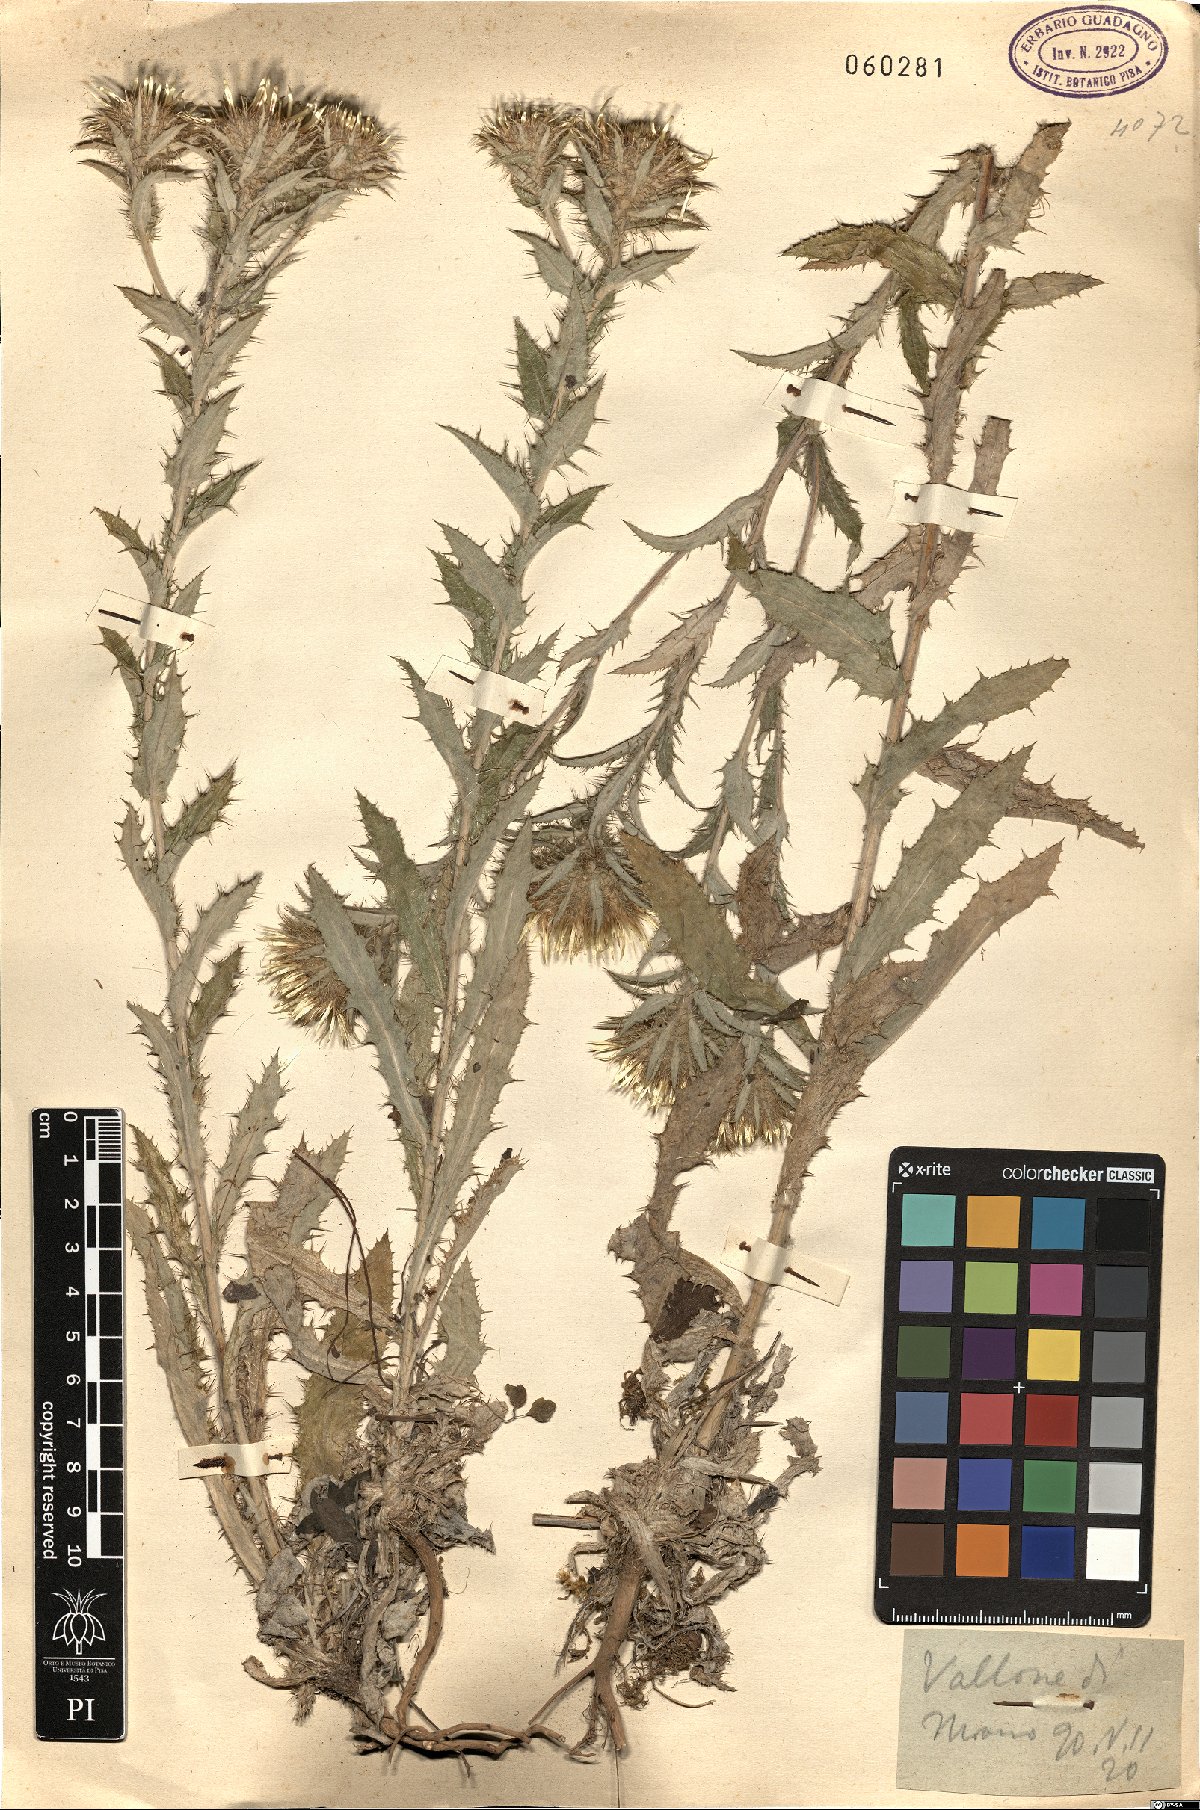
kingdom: Plantae
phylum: Tracheophyta
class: Magnoliopsida
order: Asterales
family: Asteraceae
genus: Carlina
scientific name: Carlina vulgaris
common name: Carline thistle
